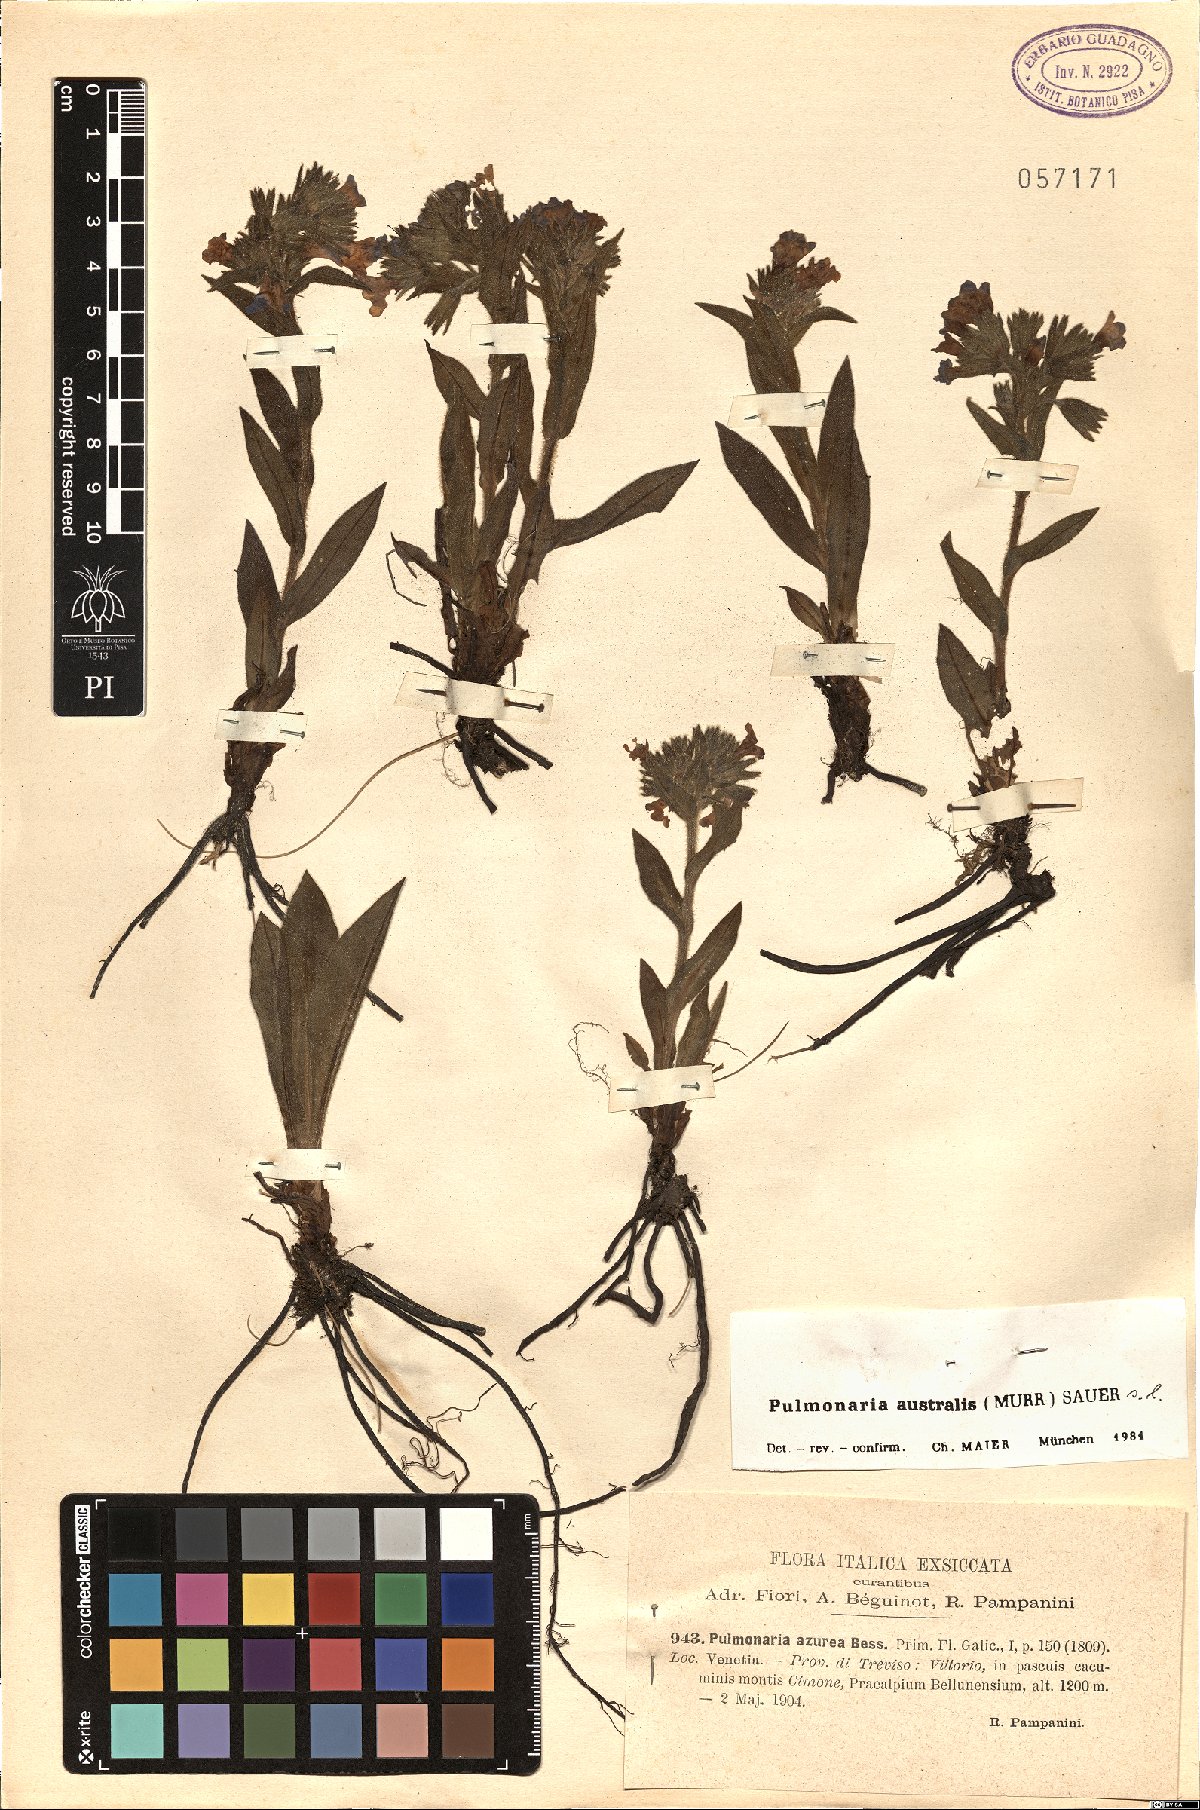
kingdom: Plantae
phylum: Tracheophyta
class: Magnoliopsida
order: Boraginales
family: Boraginaceae
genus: Pulmonaria
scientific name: Pulmonaria australis
